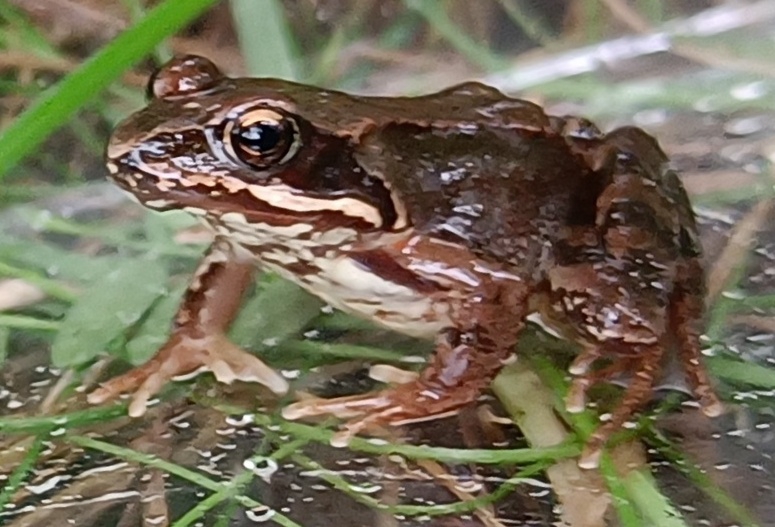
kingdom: Animalia
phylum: Chordata
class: Amphibia
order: Anura
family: Ranidae
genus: Rana
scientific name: Rana temporaria
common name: Butsnudet frø
